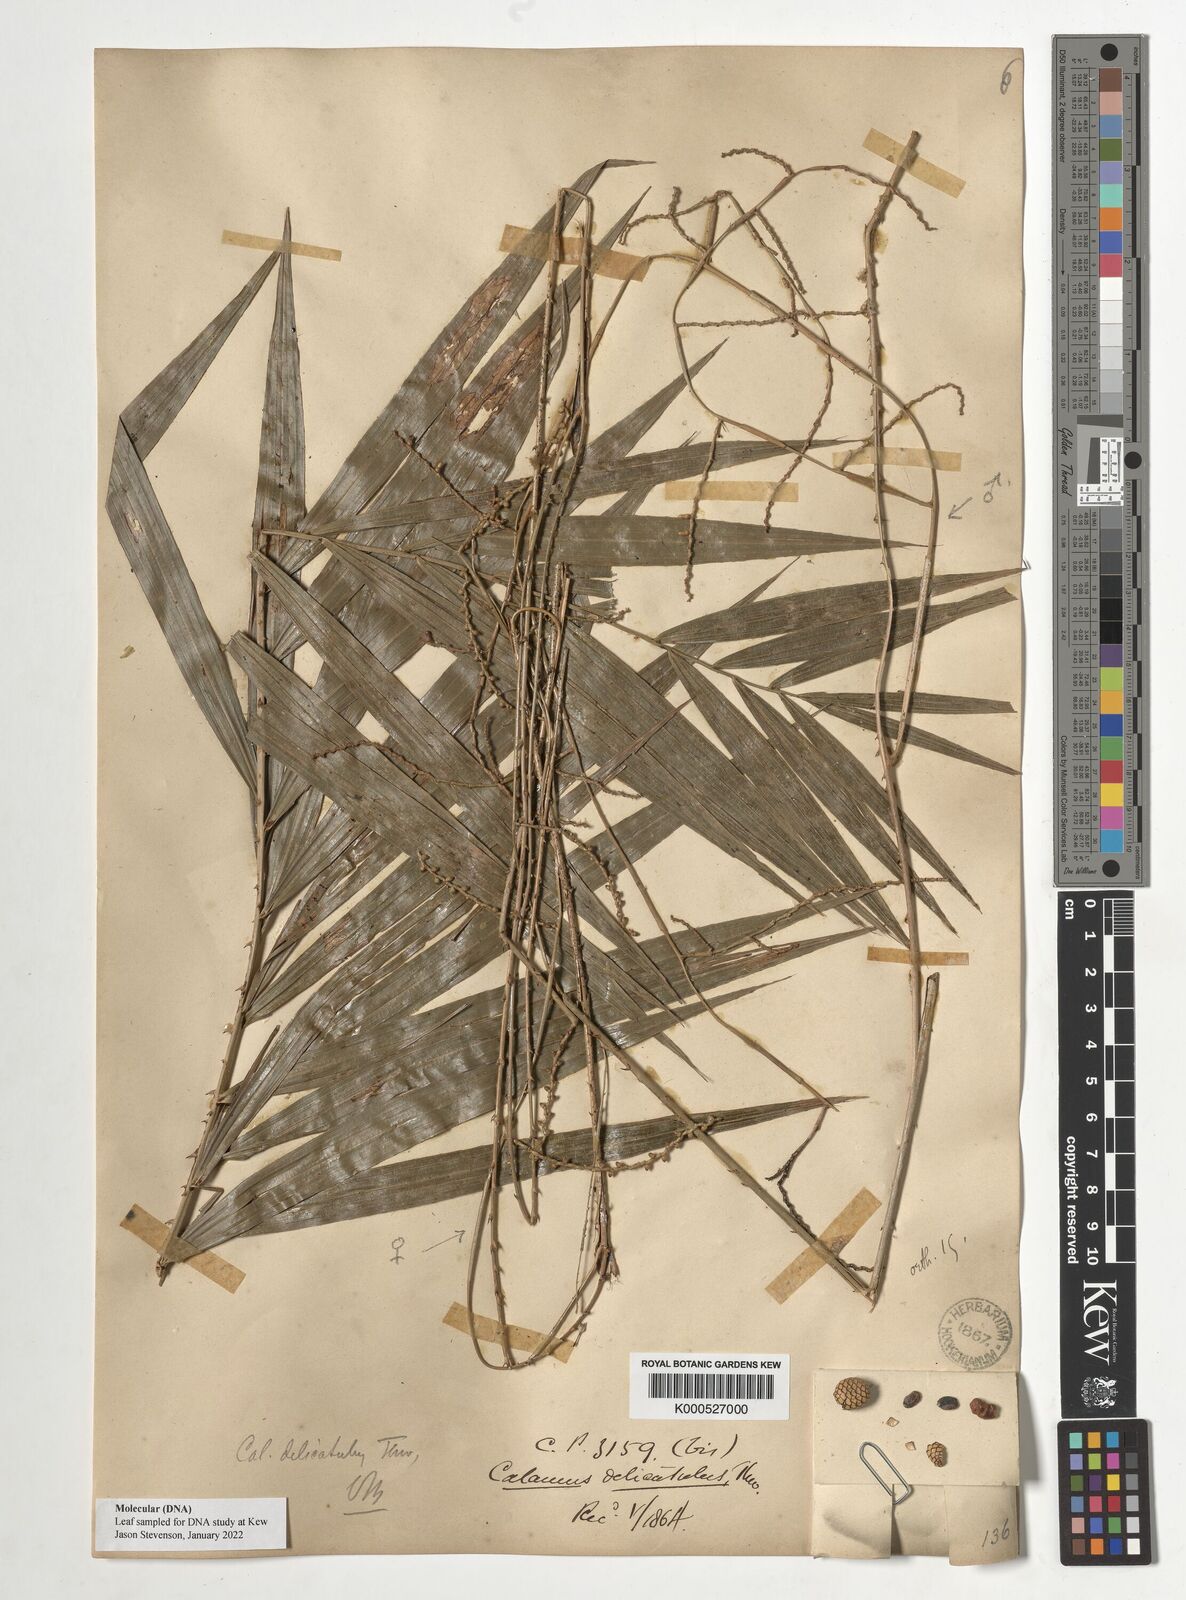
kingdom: Plantae
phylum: Tracheophyta
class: Liliopsida
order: Arecales
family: Arecaceae
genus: Calamus
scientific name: Calamus delicatulus
